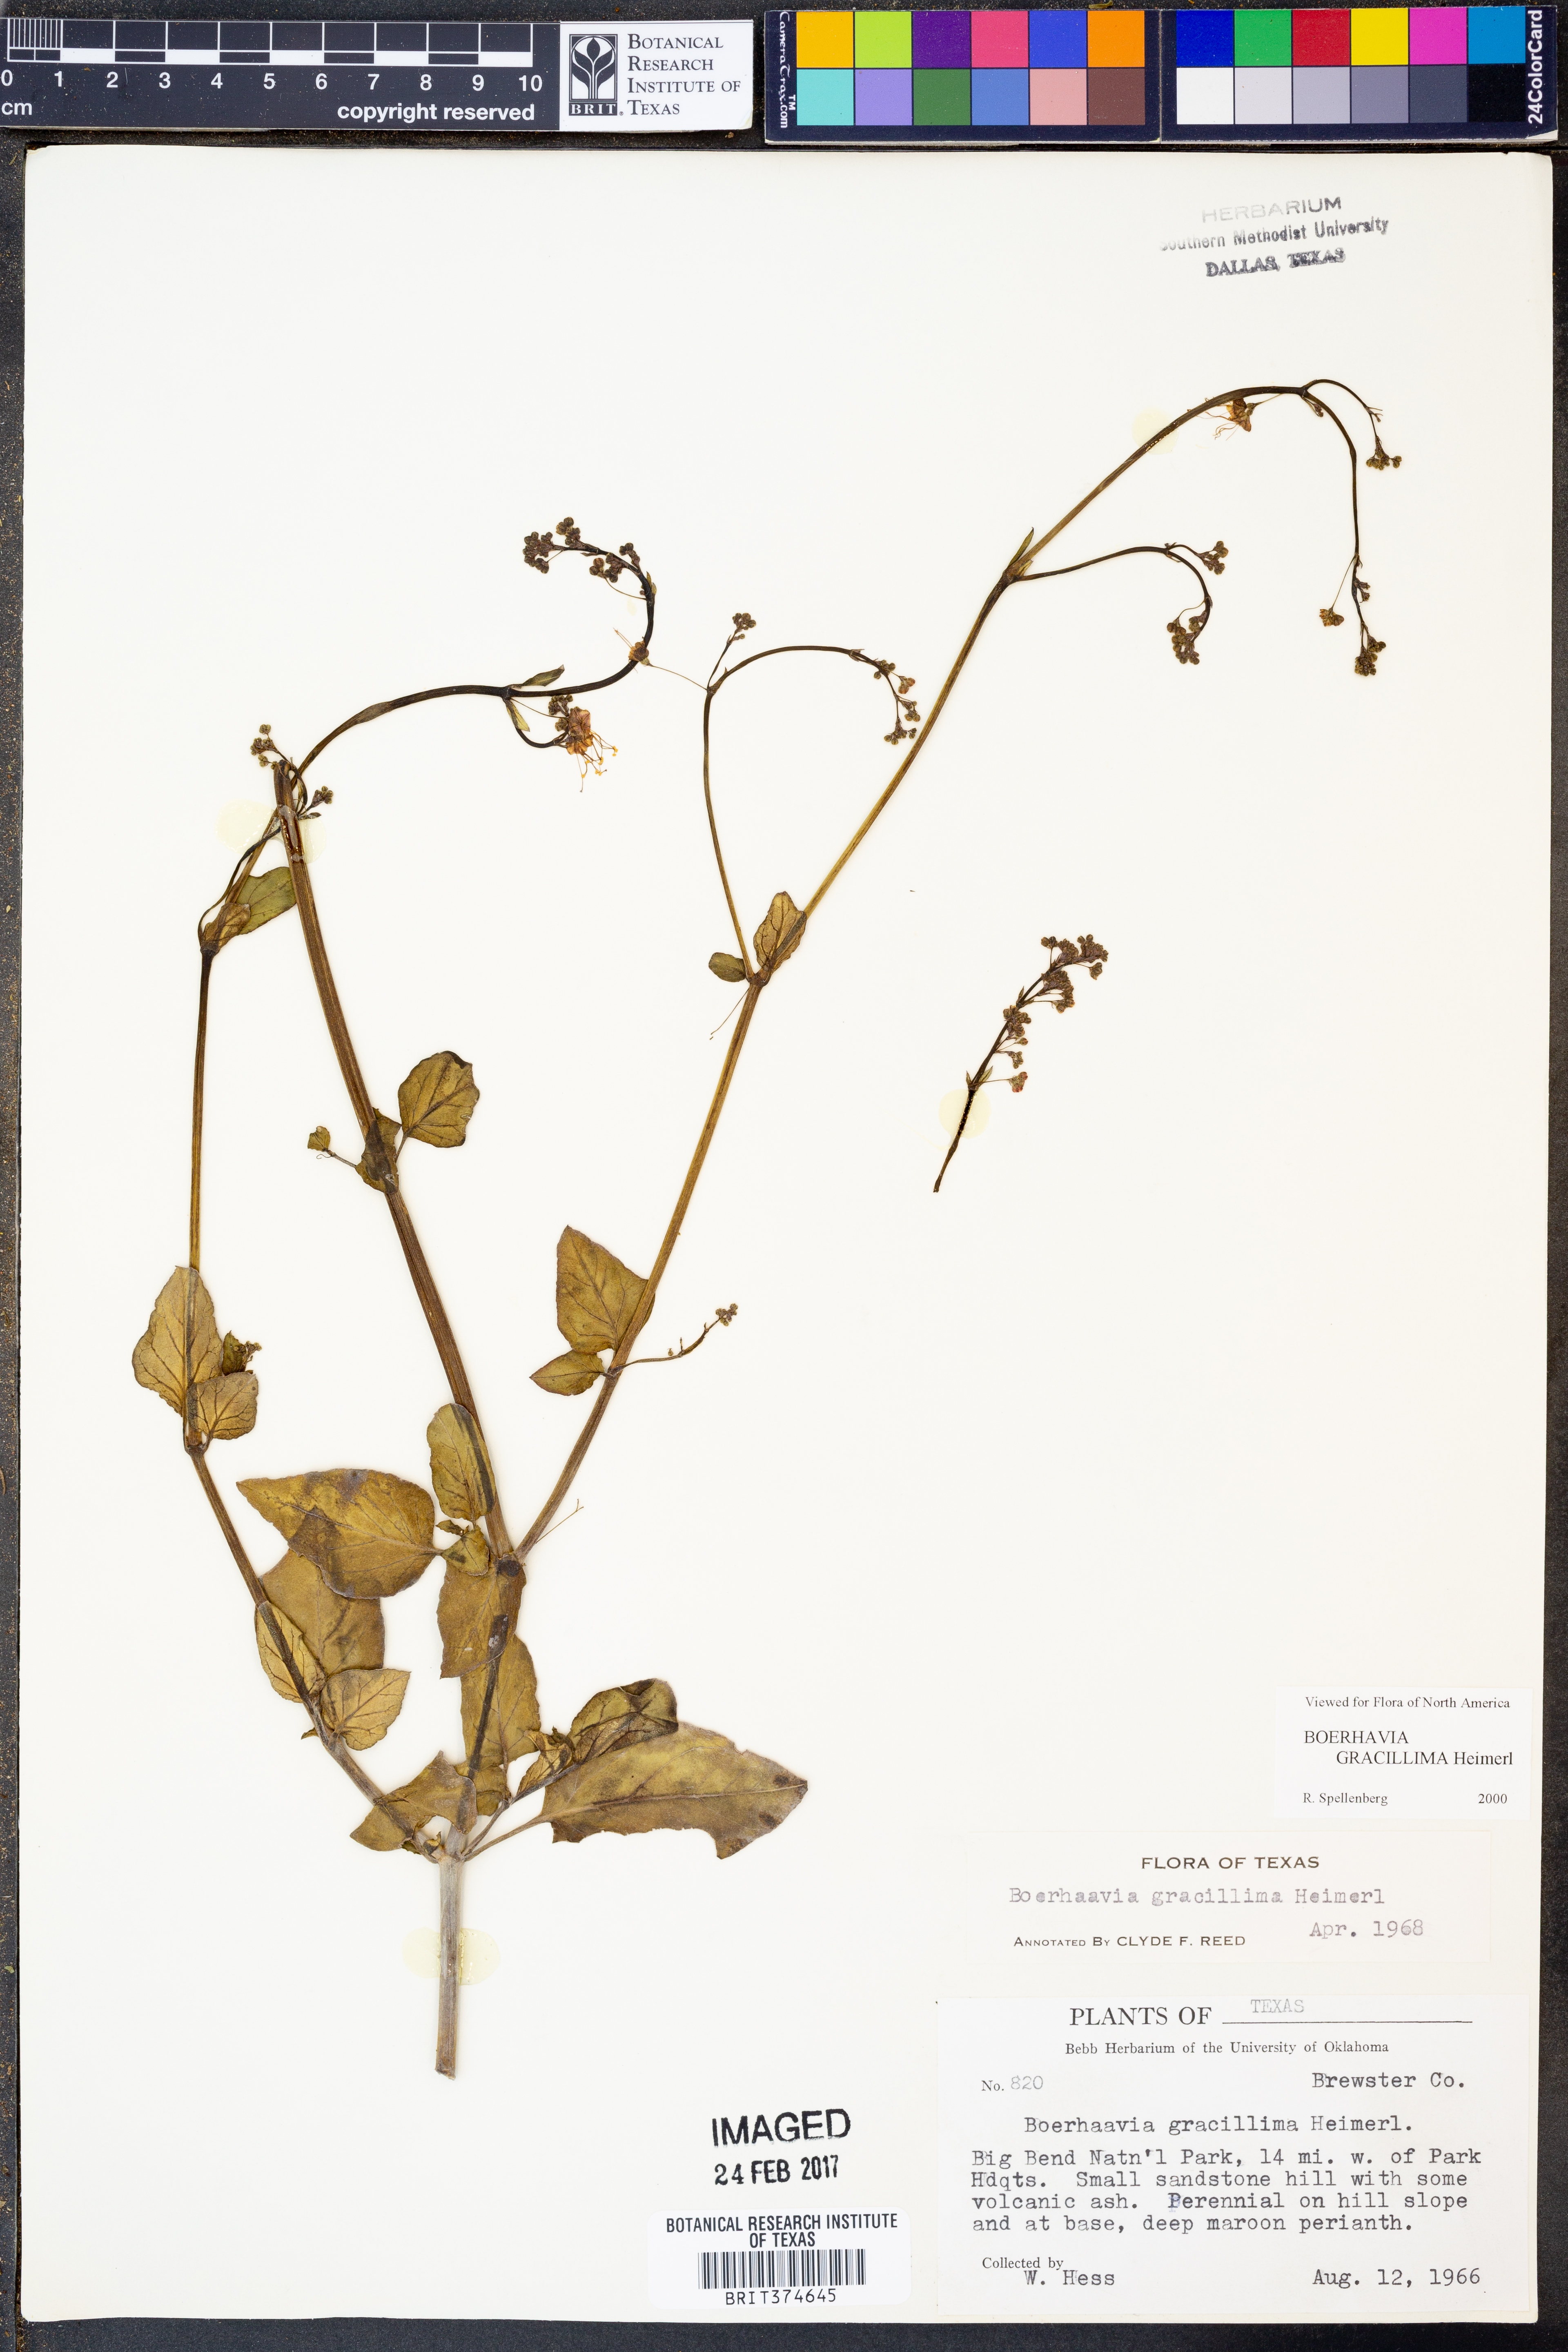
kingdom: Plantae
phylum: Tracheophyta
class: Magnoliopsida
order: Caryophyllales
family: Nyctaginaceae
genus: Boerhavia
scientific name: Boerhavia gracillima
